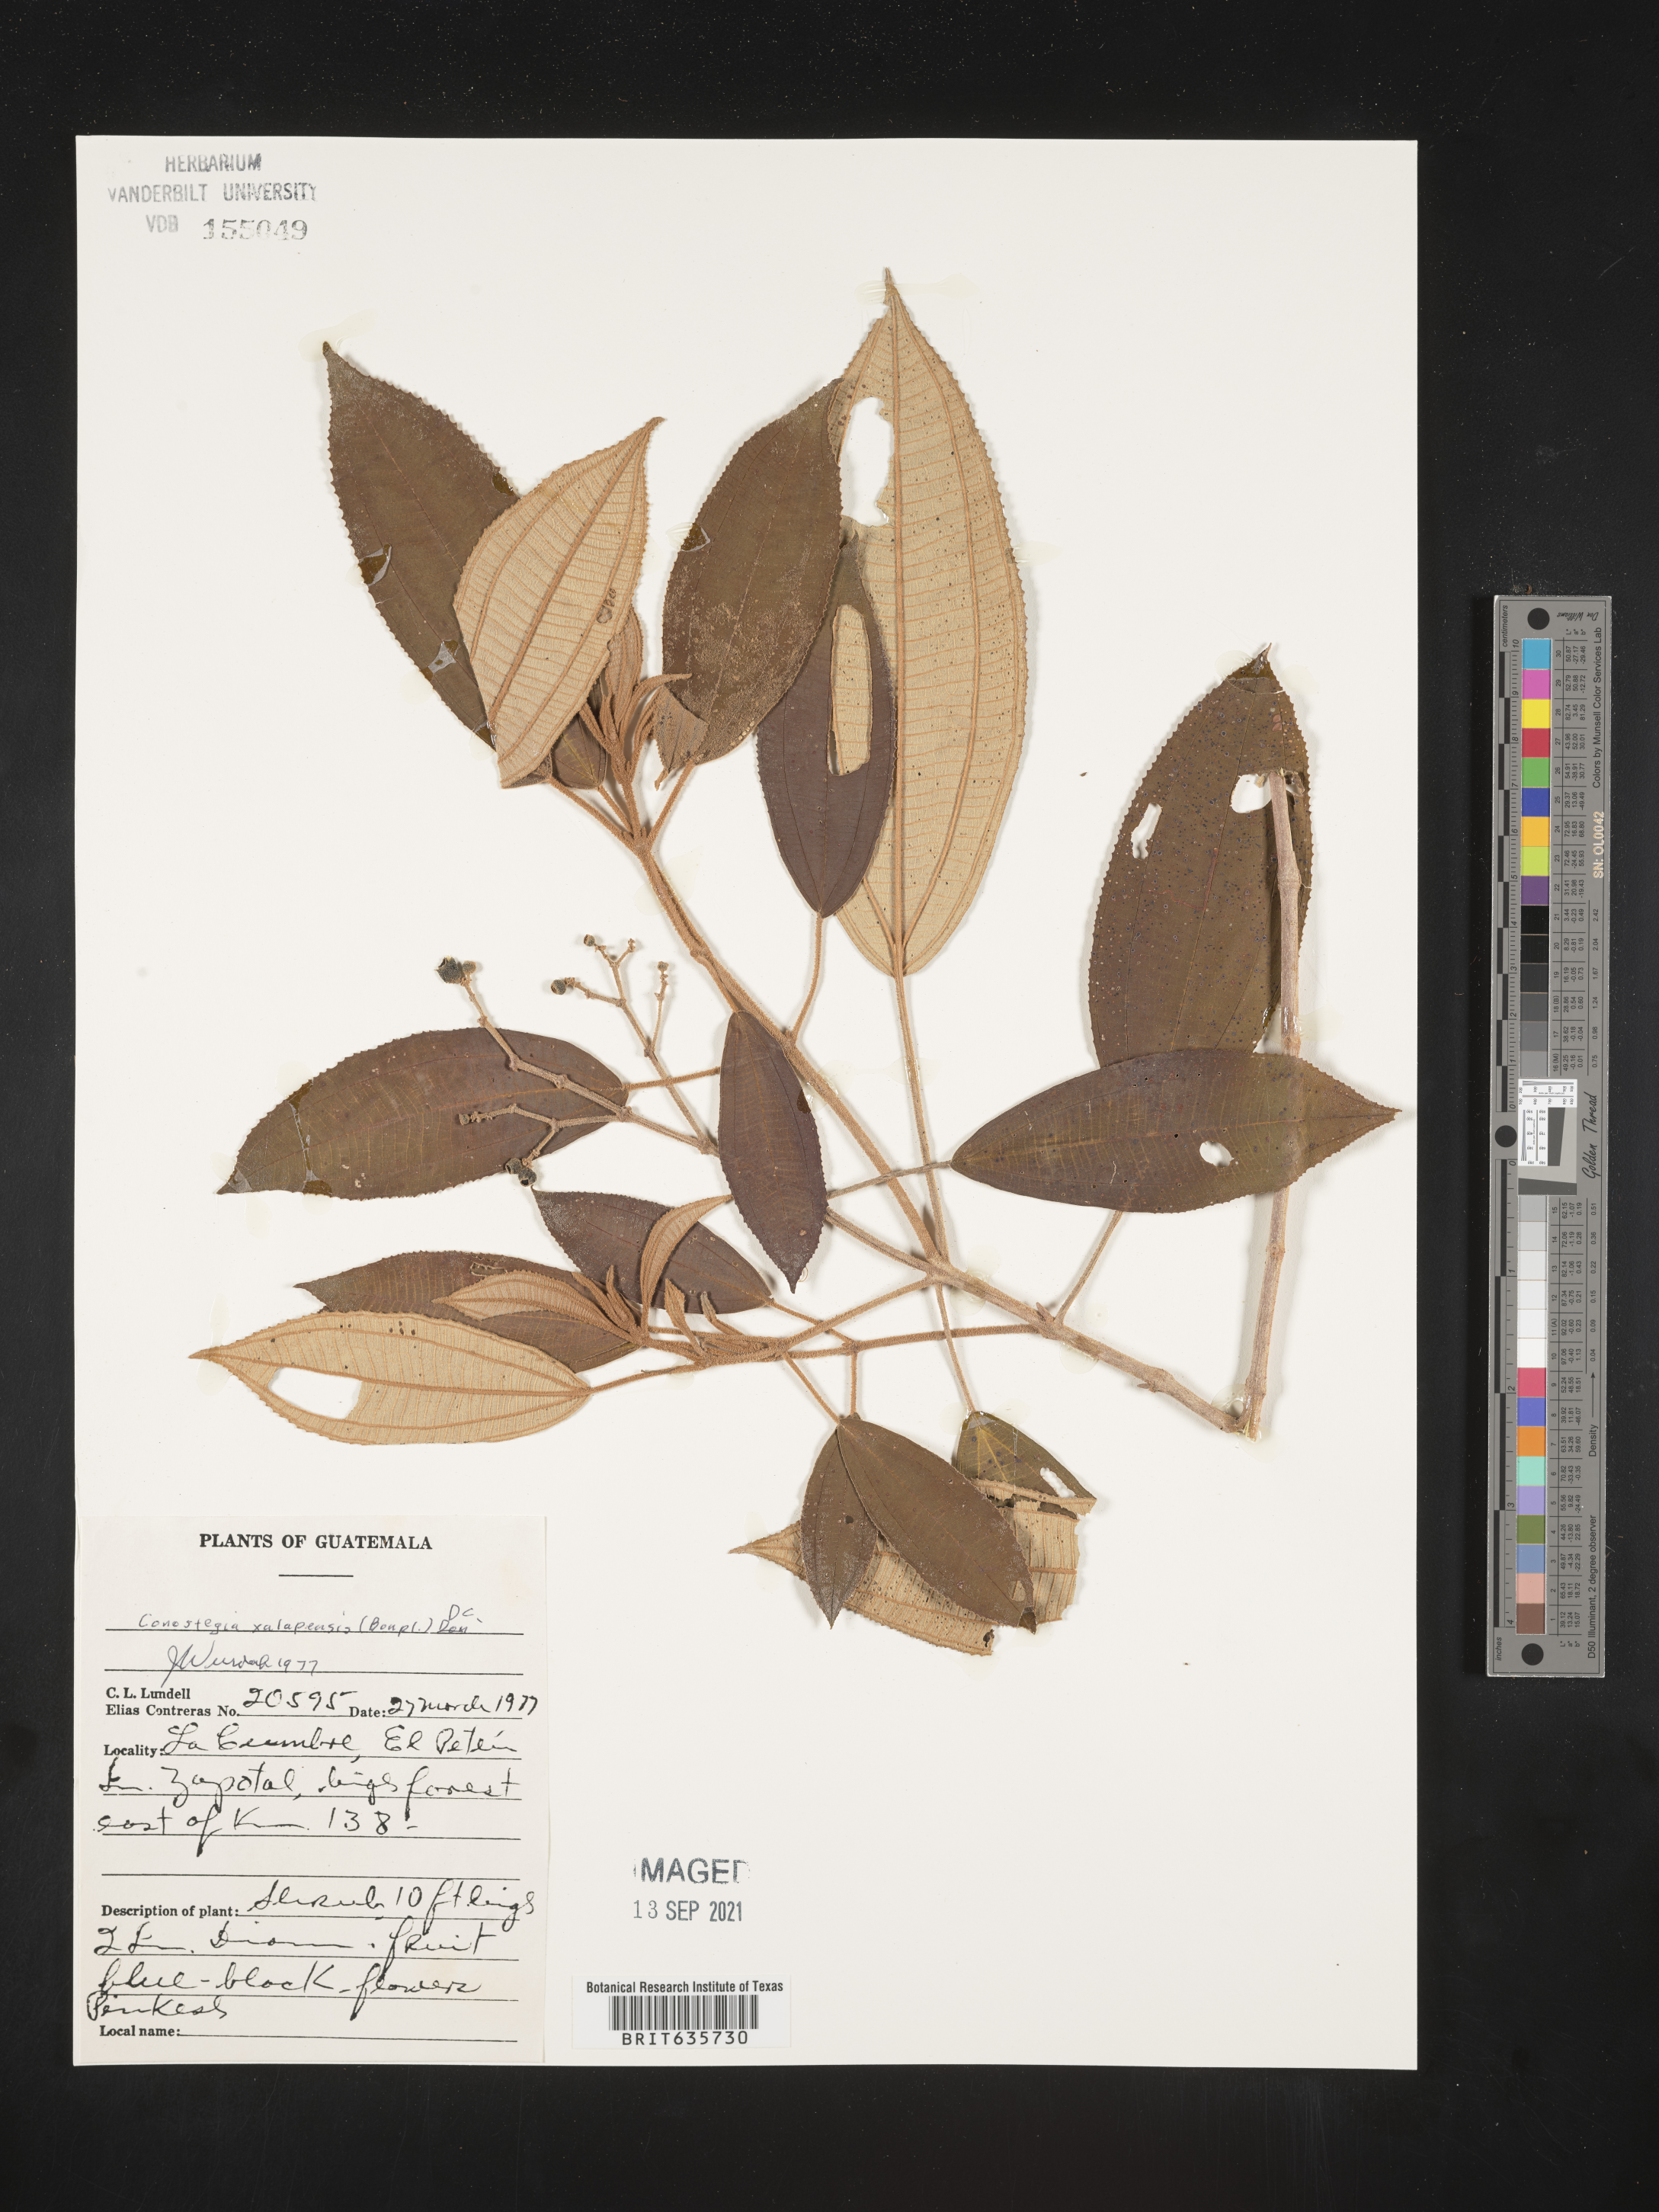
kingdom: Plantae
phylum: Tracheophyta
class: Magnoliopsida
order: Myrtales
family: Melastomataceae
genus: Miconia
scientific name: Miconia
